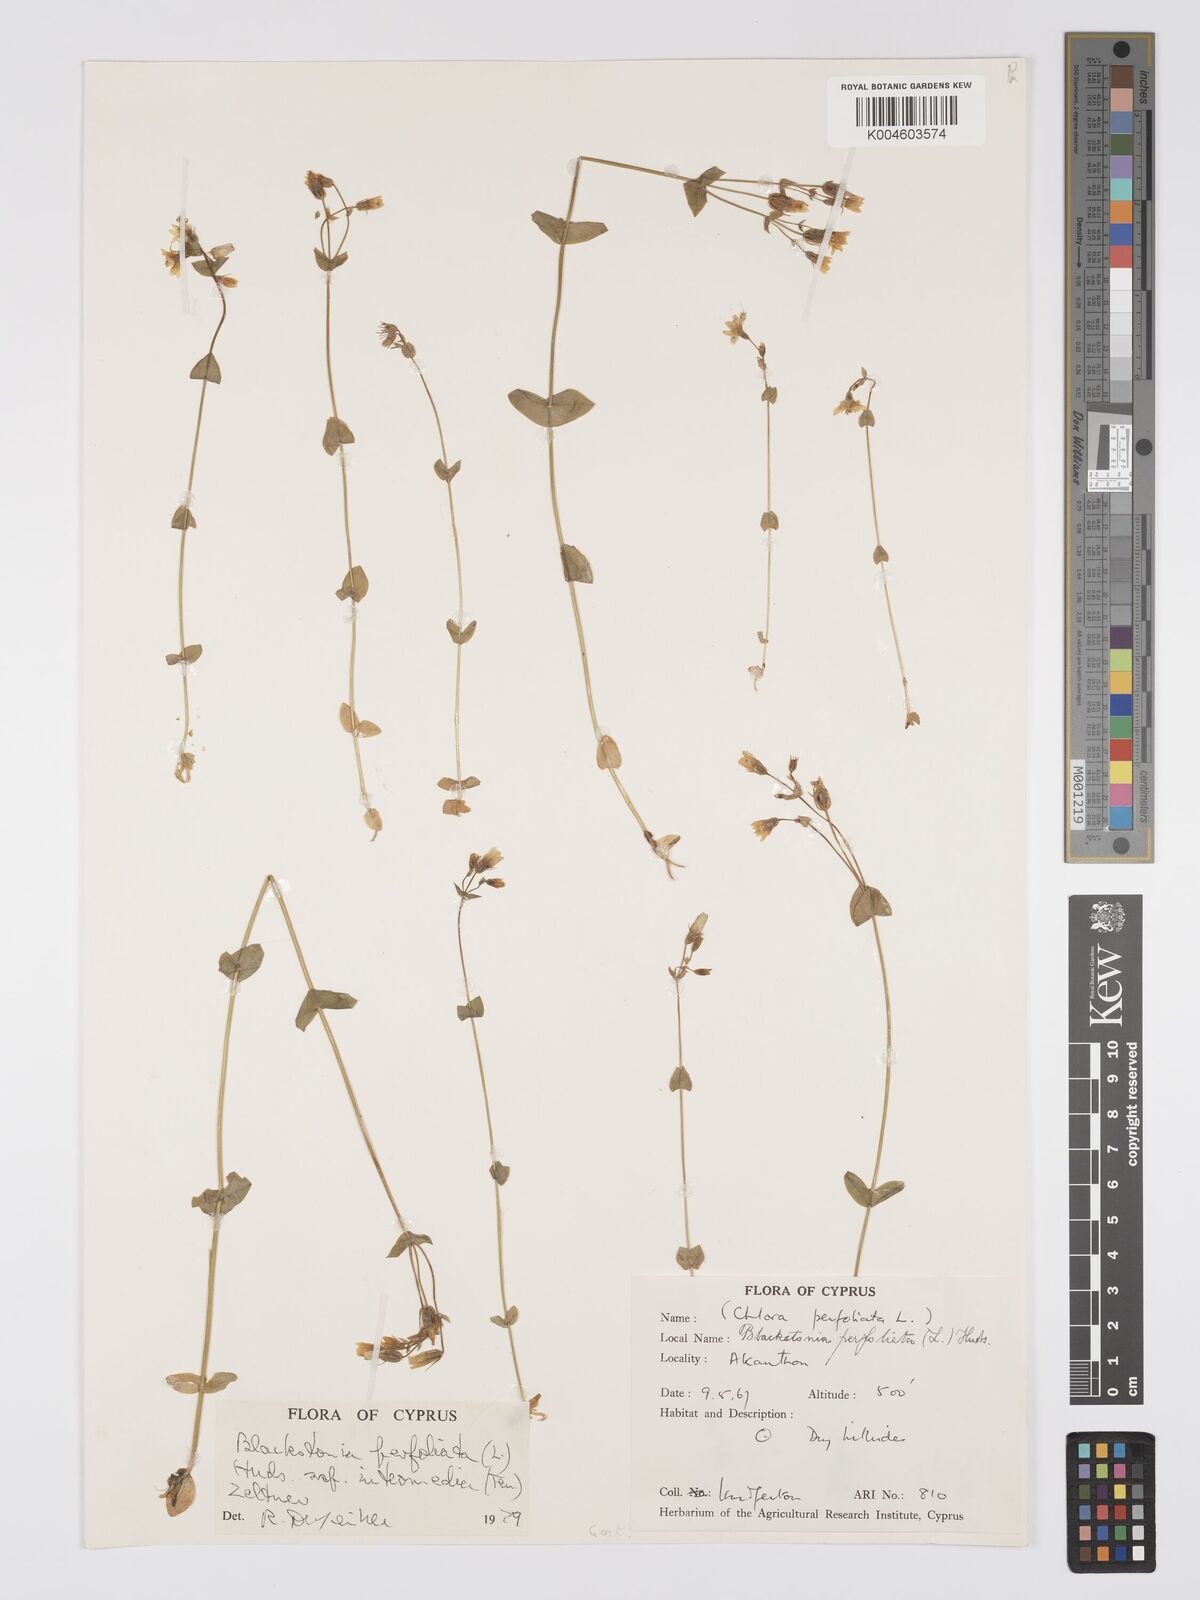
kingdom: Plantae
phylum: Tracheophyta
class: Magnoliopsida
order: Gentianales
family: Gentianaceae
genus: Blackstonia
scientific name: Blackstonia perfoliata
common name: Yellow-wort
